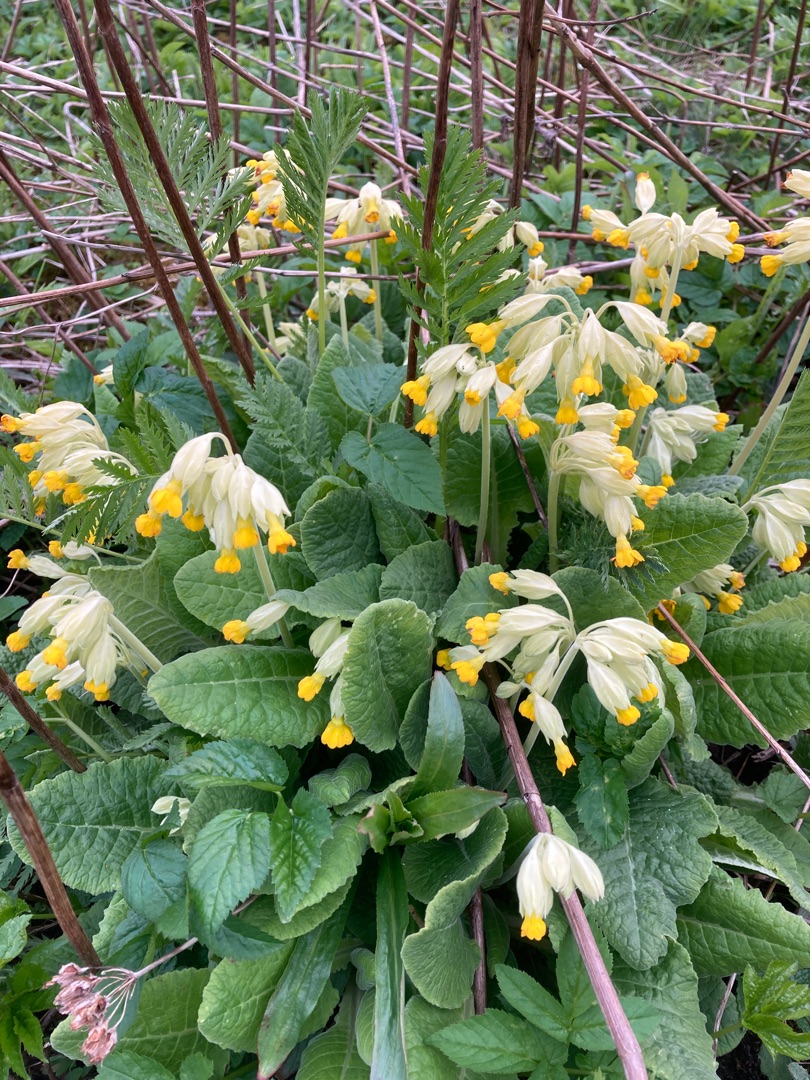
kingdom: Plantae
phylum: Tracheophyta
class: Magnoliopsida
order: Ericales
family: Primulaceae
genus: Primula
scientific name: Primula veris
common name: Hulkravet kodriver
